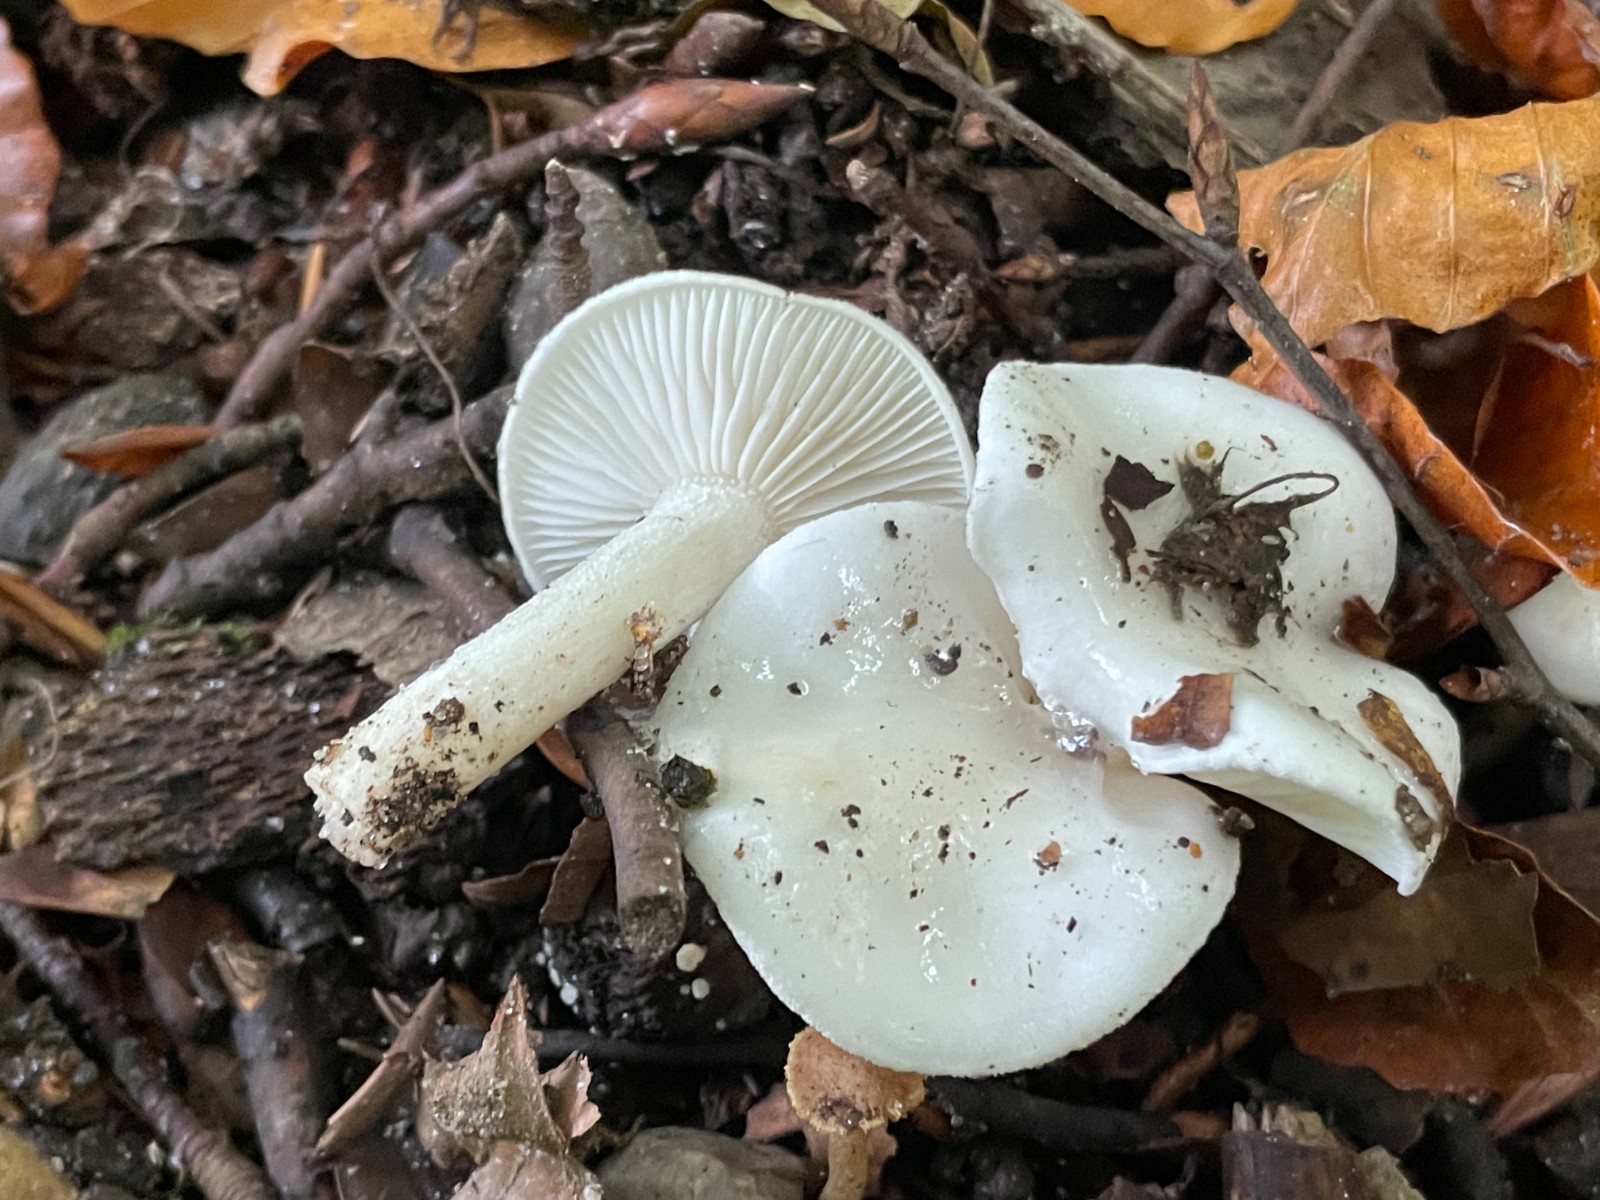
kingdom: Fungi
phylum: Basidiomycota
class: Agaricomycetes
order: Agaricales
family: Hygrophoraceae
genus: Hygrophorus
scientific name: Hygrophorus eburneus
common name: elfenbens-sneglehat
